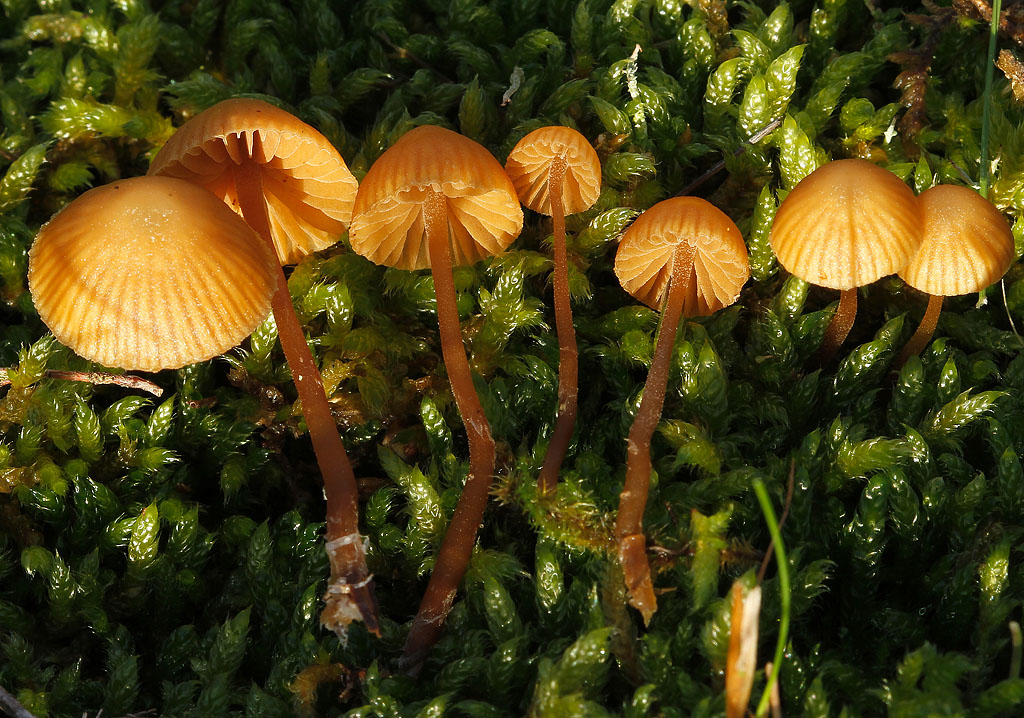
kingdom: Fungi
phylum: Basidiomycota
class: Agaricomycetes
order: Agaricales
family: Hymenogastraceae
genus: Galerina
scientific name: Galerina vittiformis
